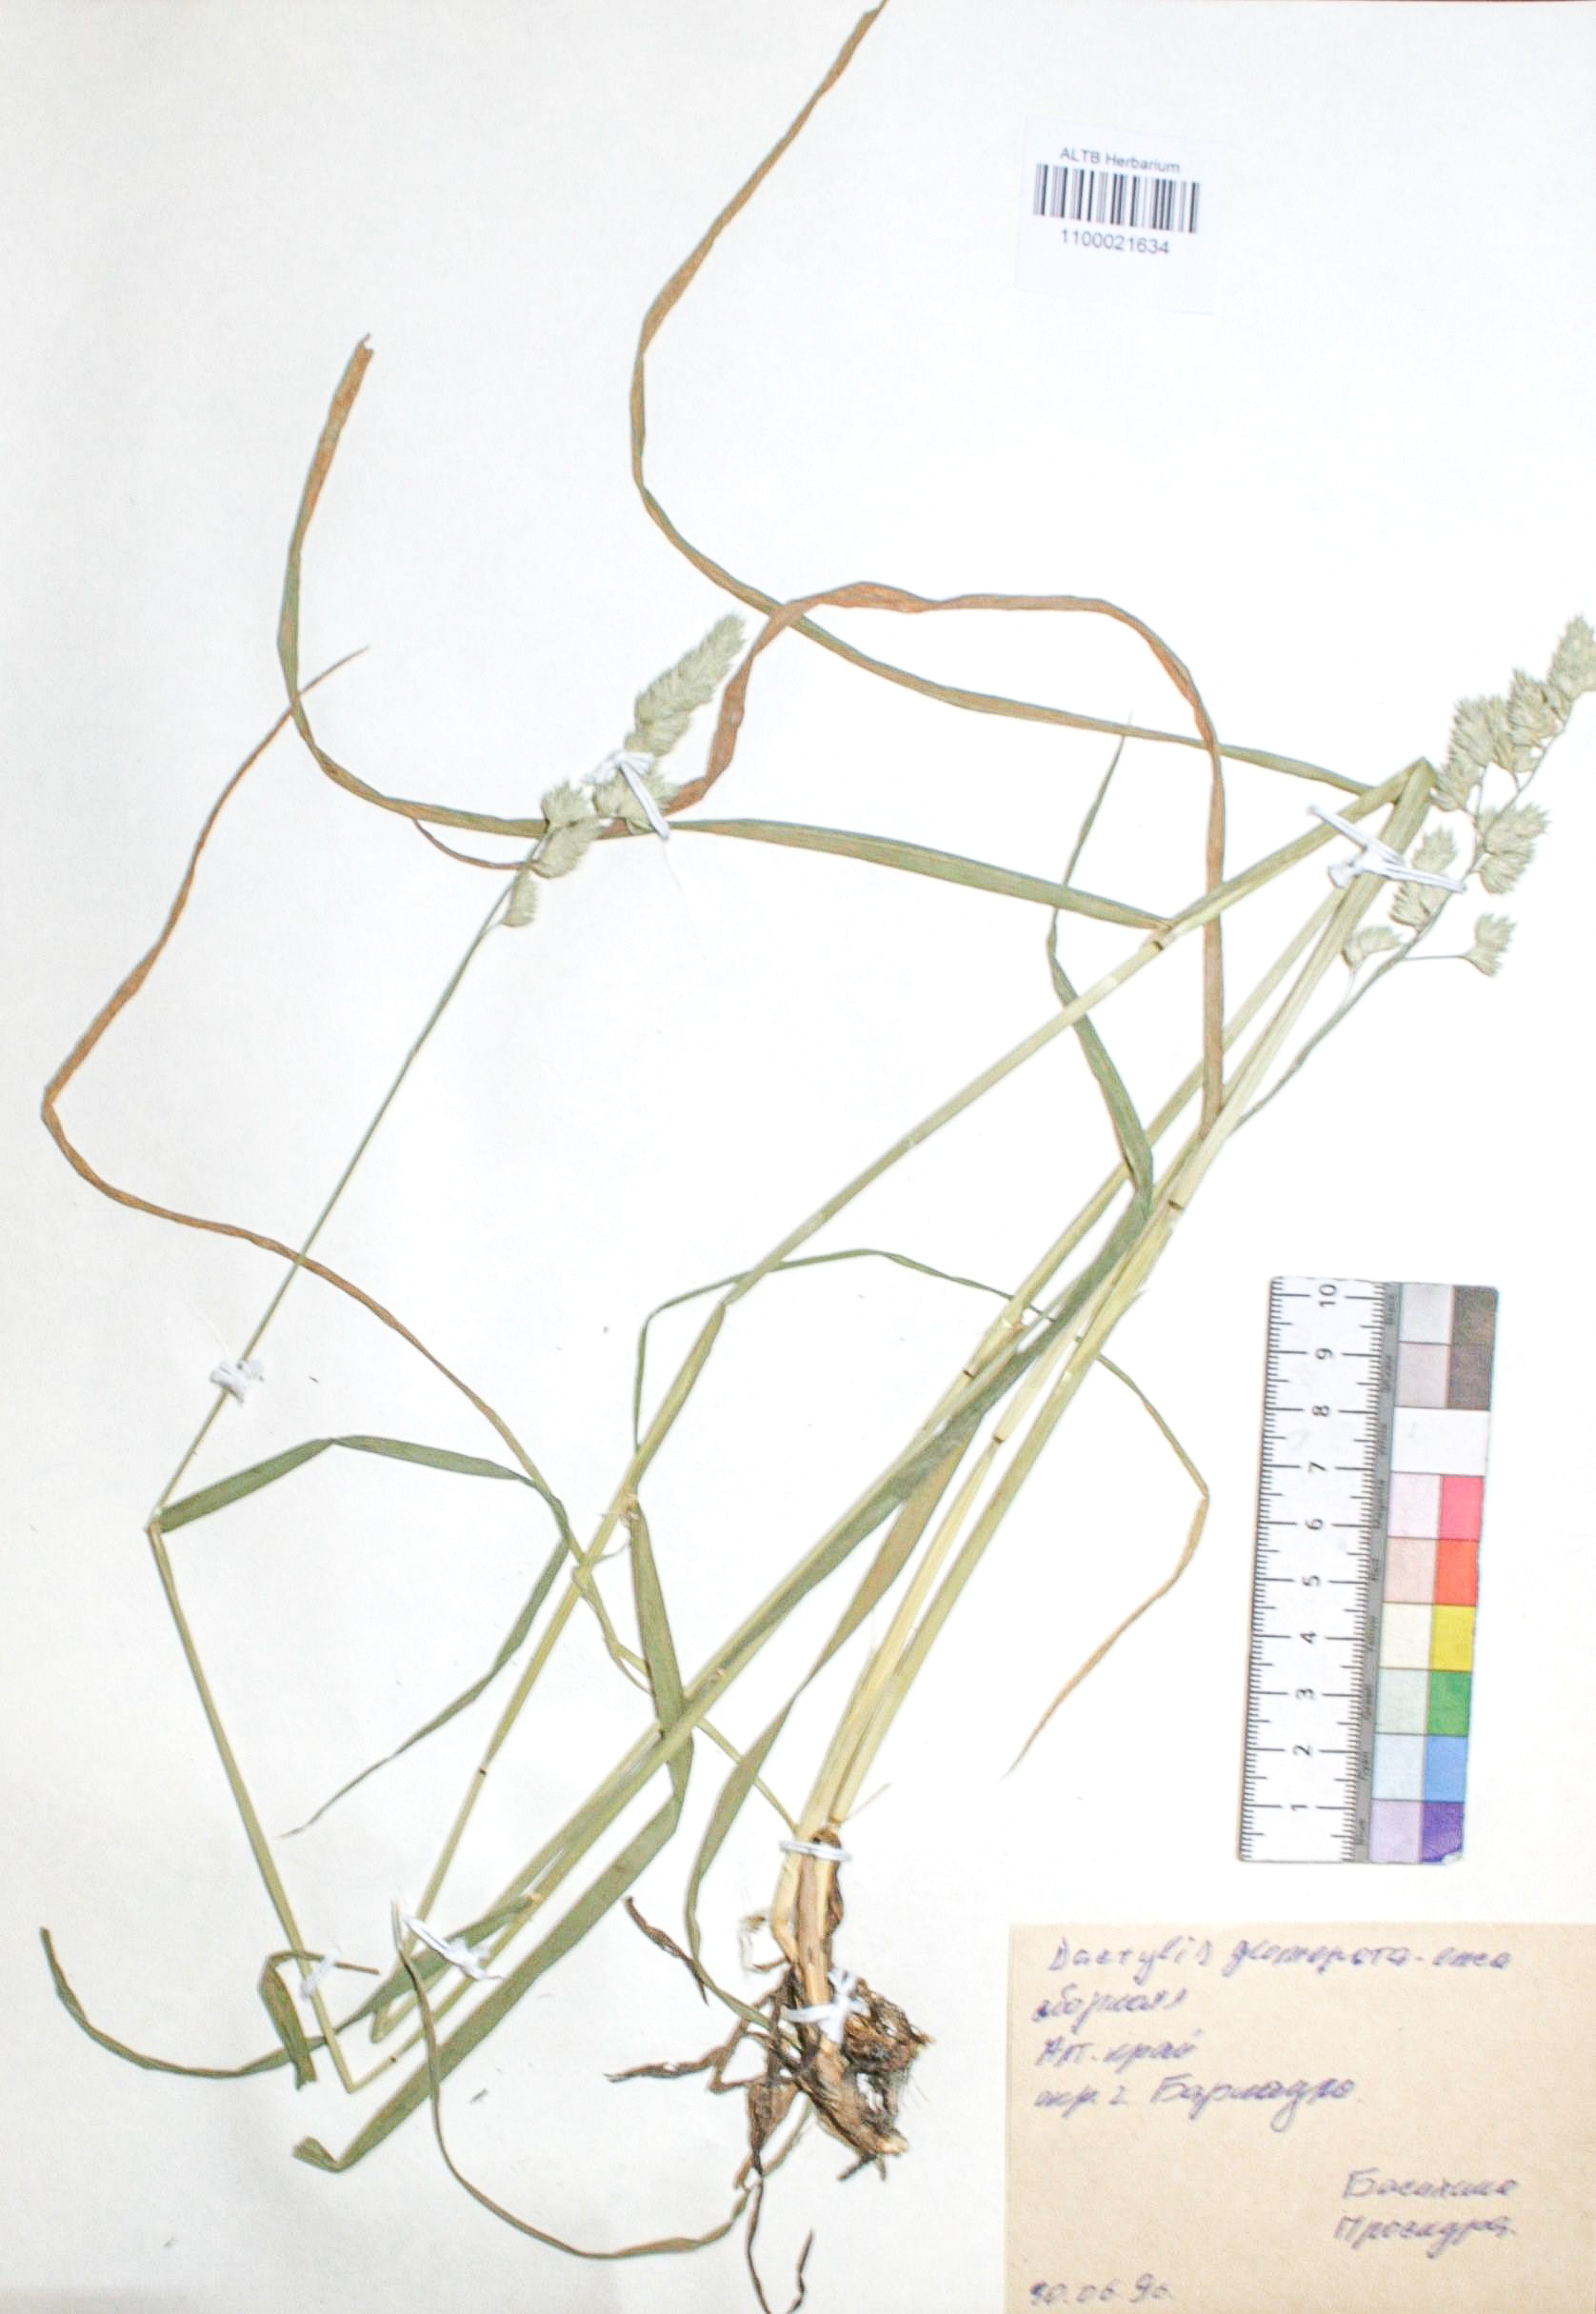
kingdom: Plantae
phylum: Tracheophyta
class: Liliopsida
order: Poales
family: Poaceae
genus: Dactylis
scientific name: Dactylis glomerata
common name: Orchardgrass
